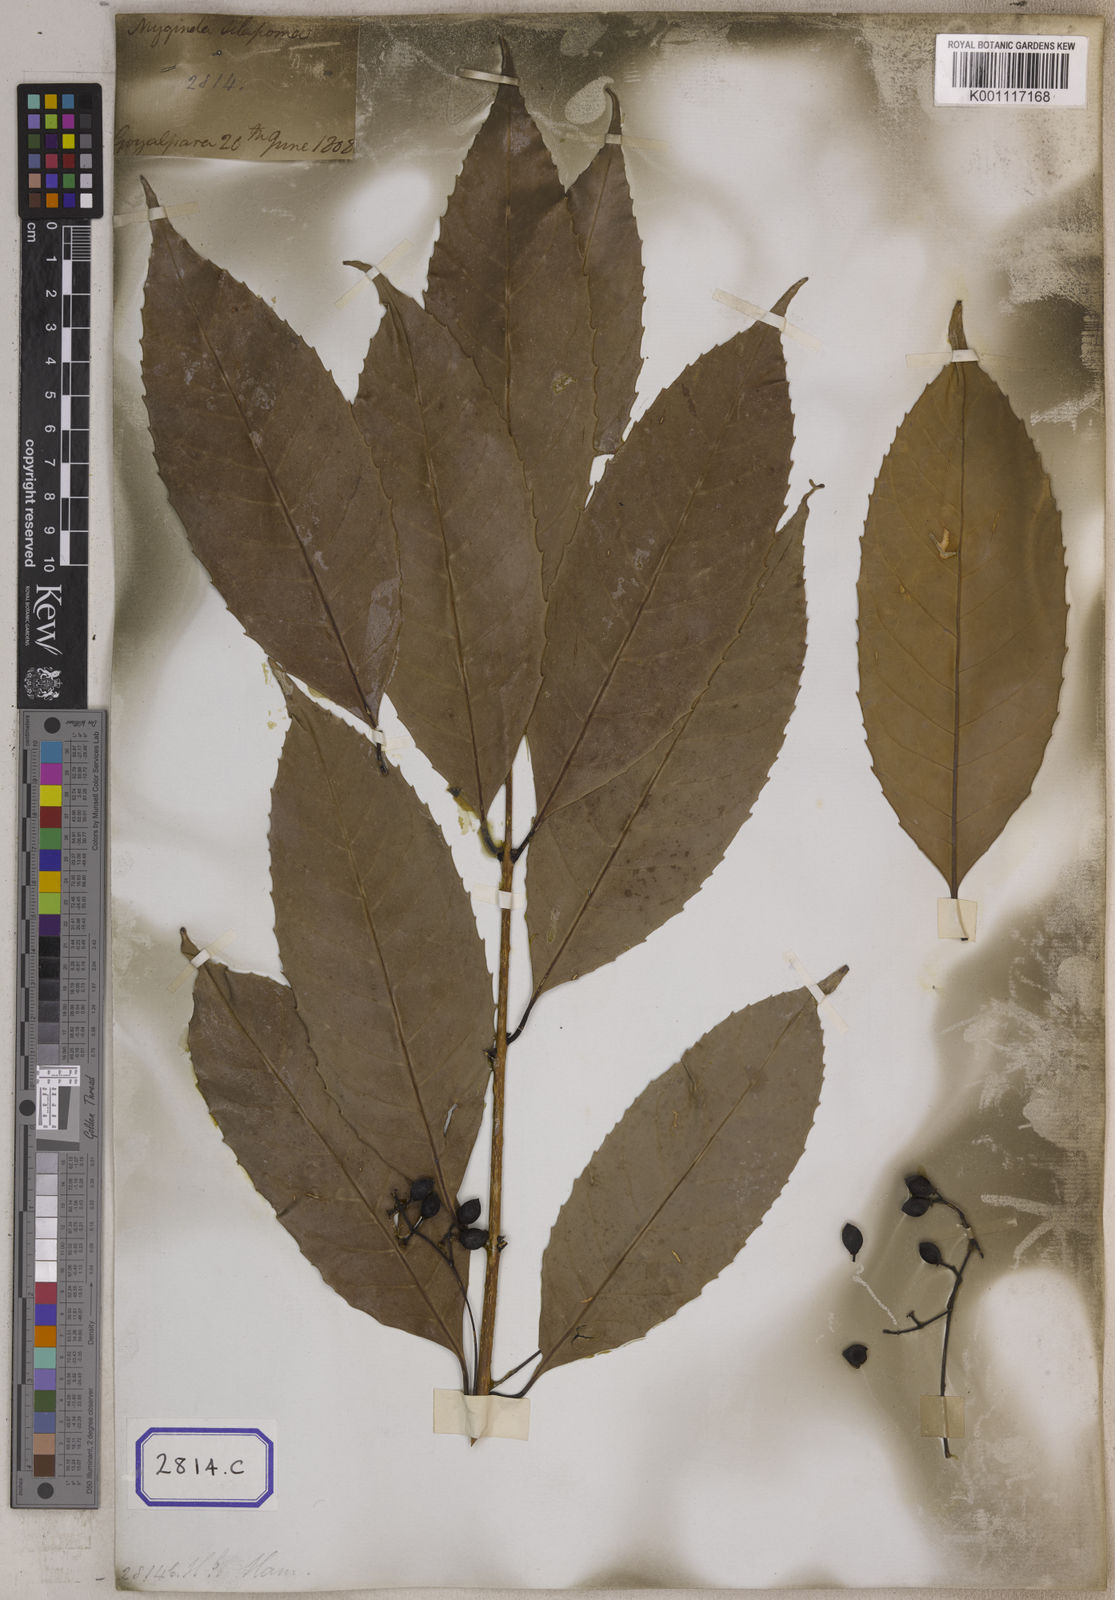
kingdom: Plantae
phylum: Tracheophyta
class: Magnoliopsida
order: Lamiales
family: Oleaceae
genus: Tetrapilus
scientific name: Tetrapilus dioicus
